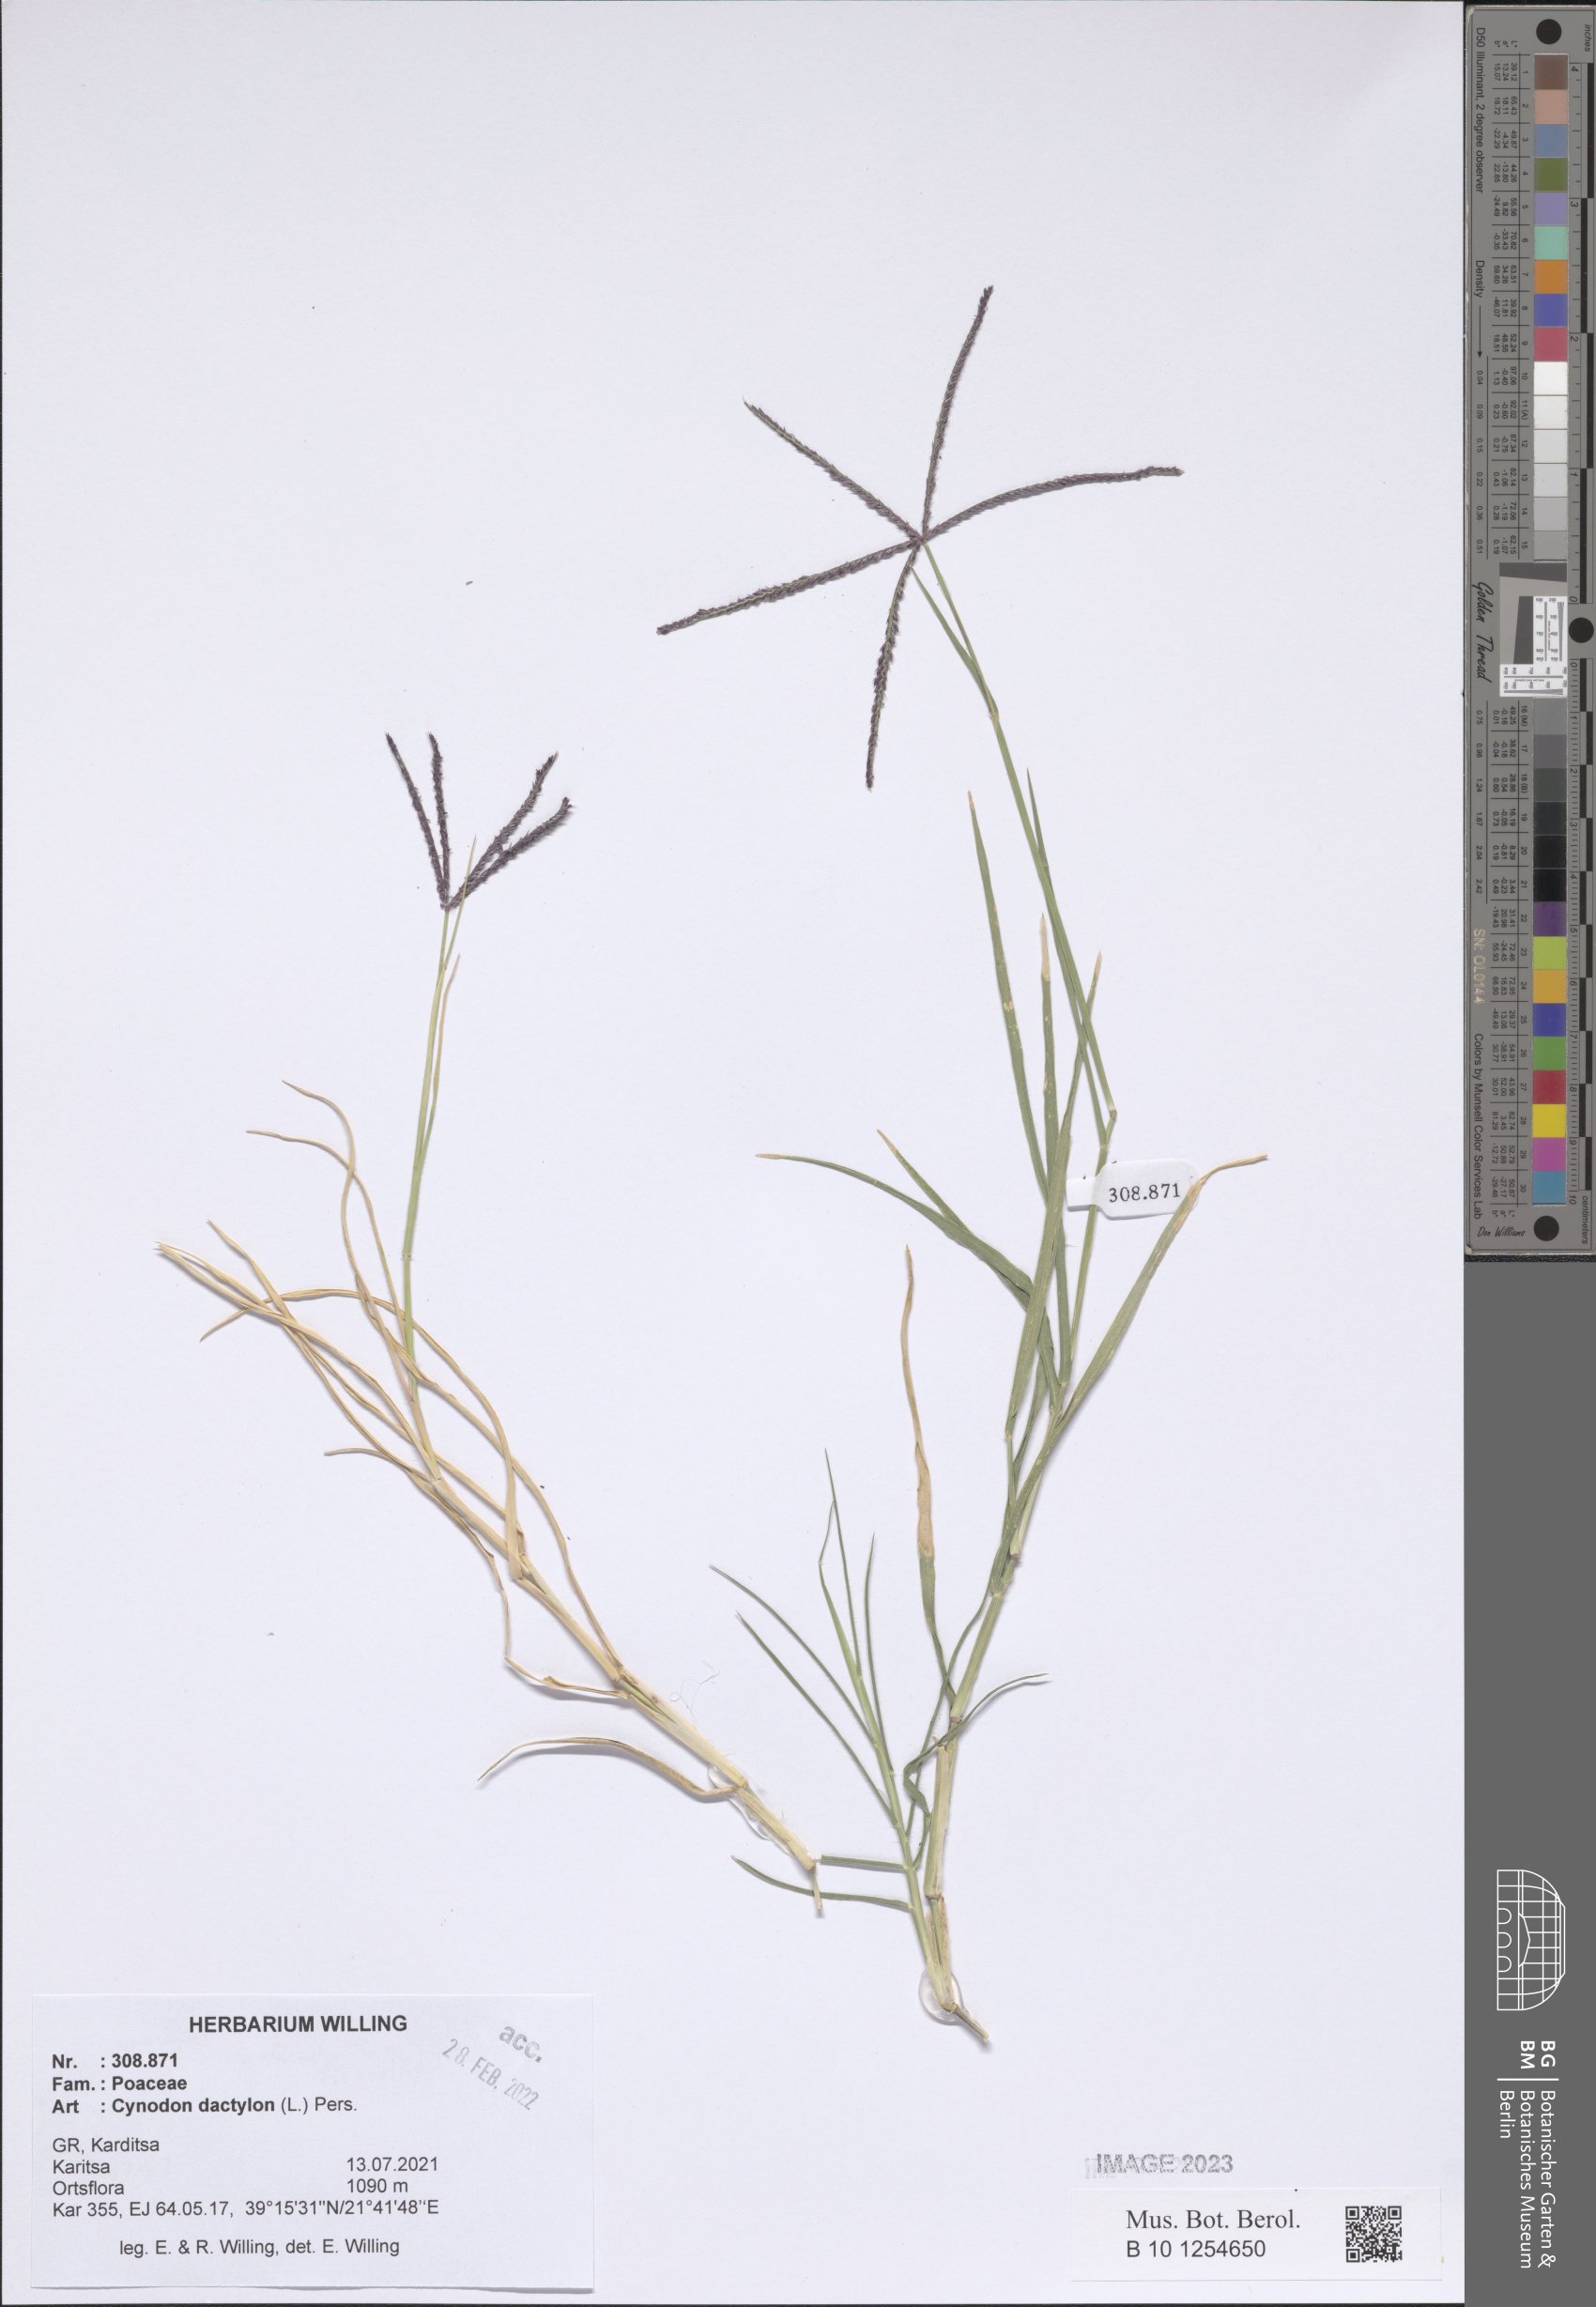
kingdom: Plantae
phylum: Tracheophyta
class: Liliopsida
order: Poales
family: Poaceae
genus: Cynodon
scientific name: Cynodon dactylon
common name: Bermuda grass
